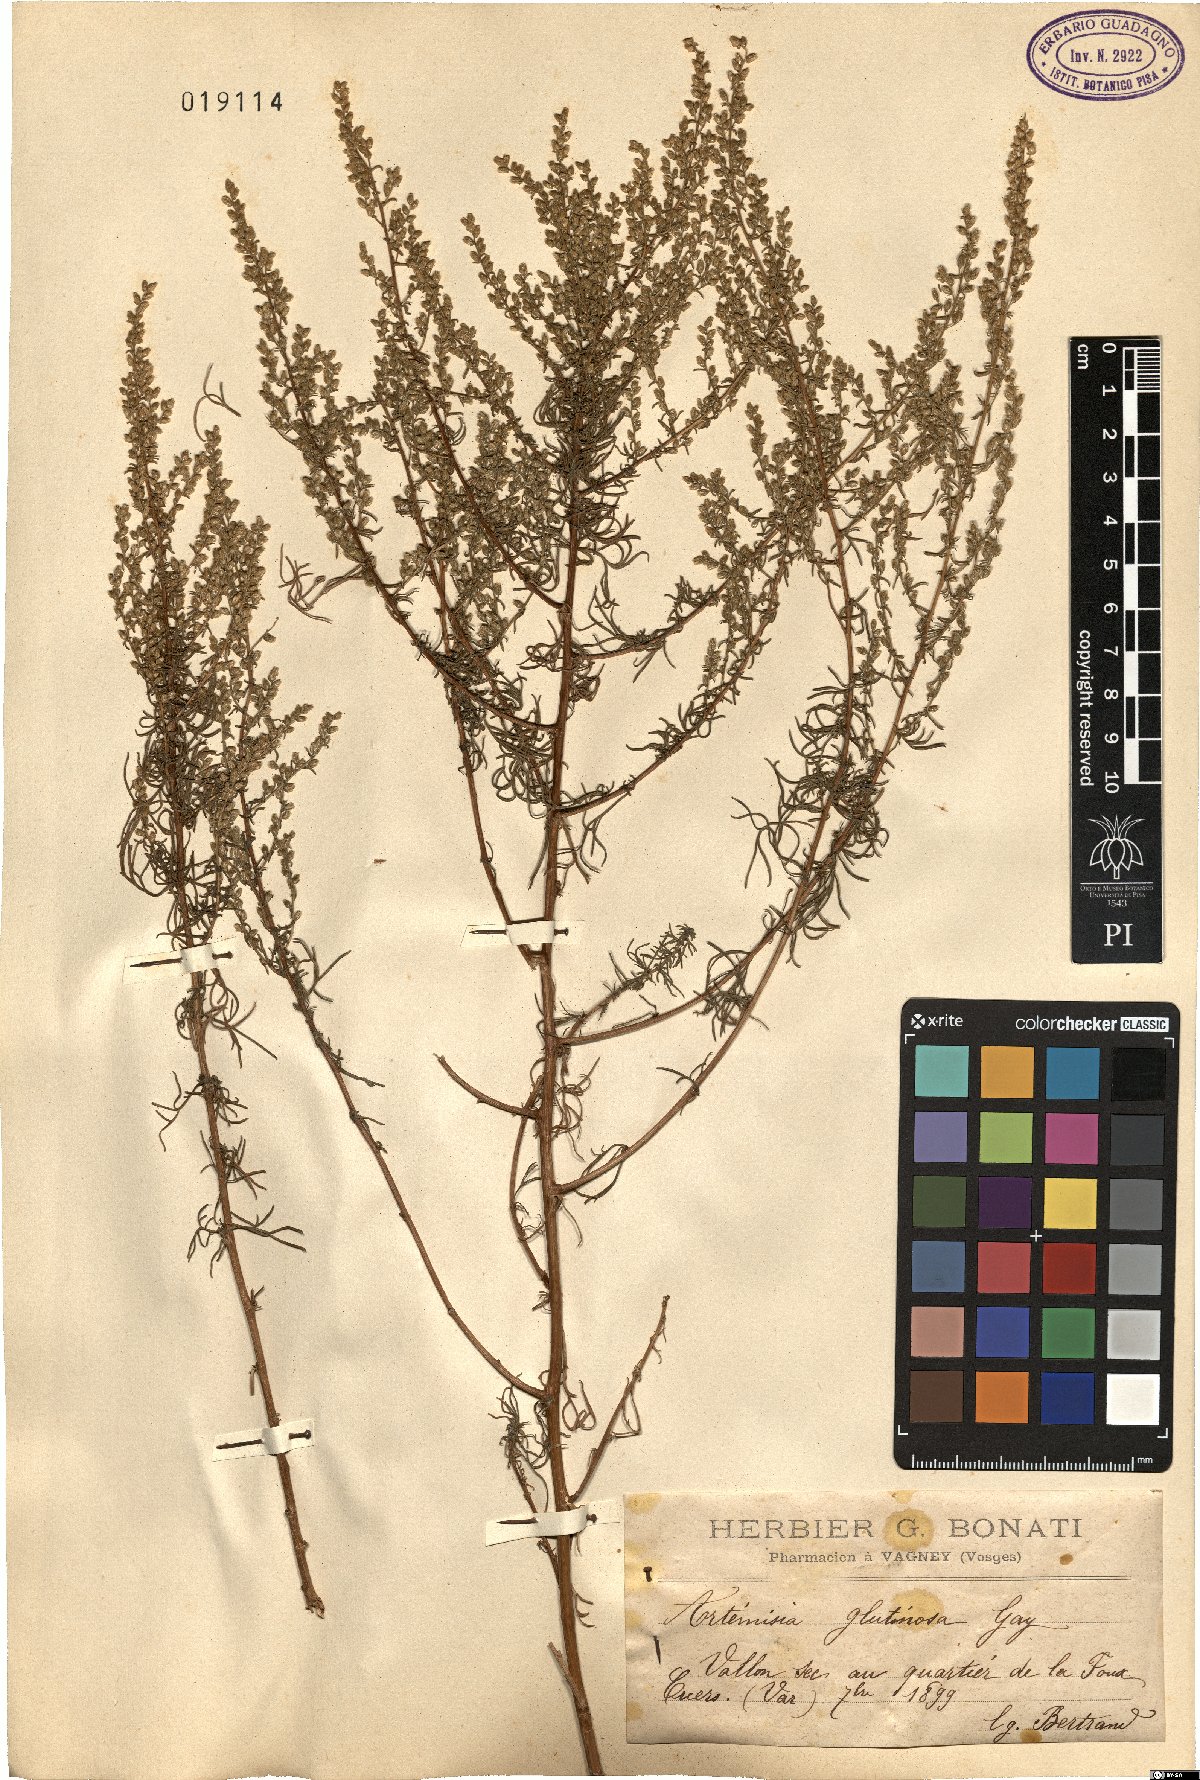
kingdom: Plantae
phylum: Tracheophyta
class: Magnoliopsida
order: Asterales
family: Asteraceae
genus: Artemisia
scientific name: Artemisia campestris
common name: Field wormwood
